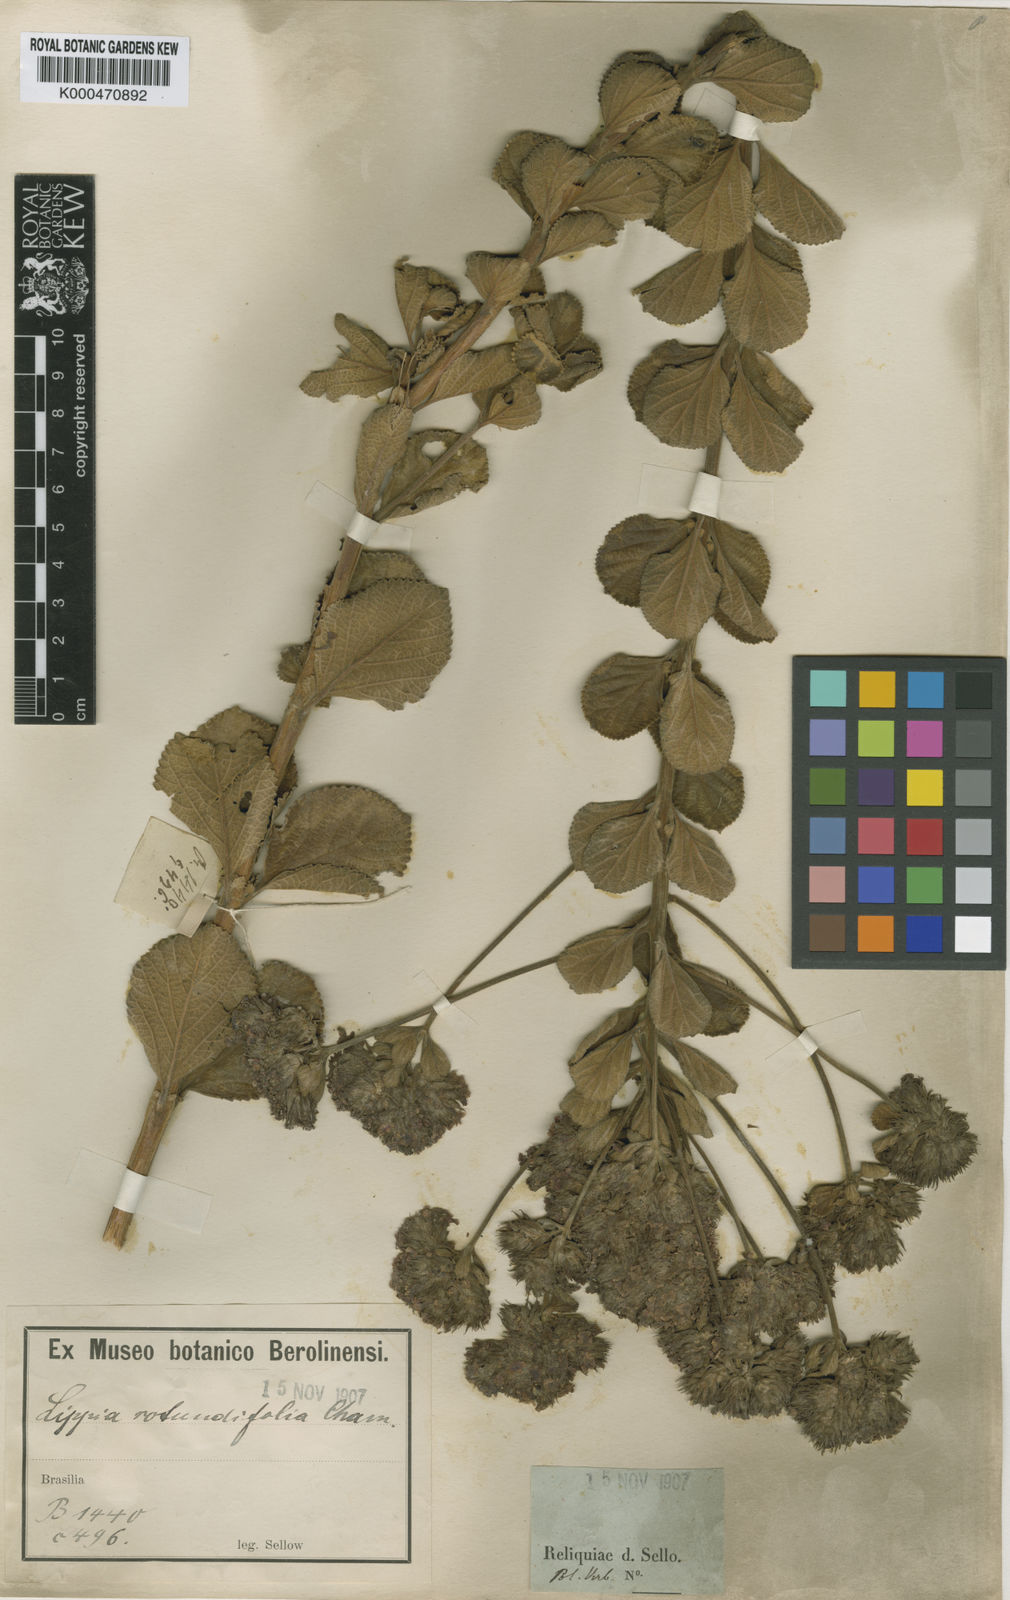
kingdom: Plantae
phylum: Tracheophyta
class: Magnoliopsida
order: Lamiales
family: Verbenaceae
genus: Lippia
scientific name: Lippia rotundifolia
